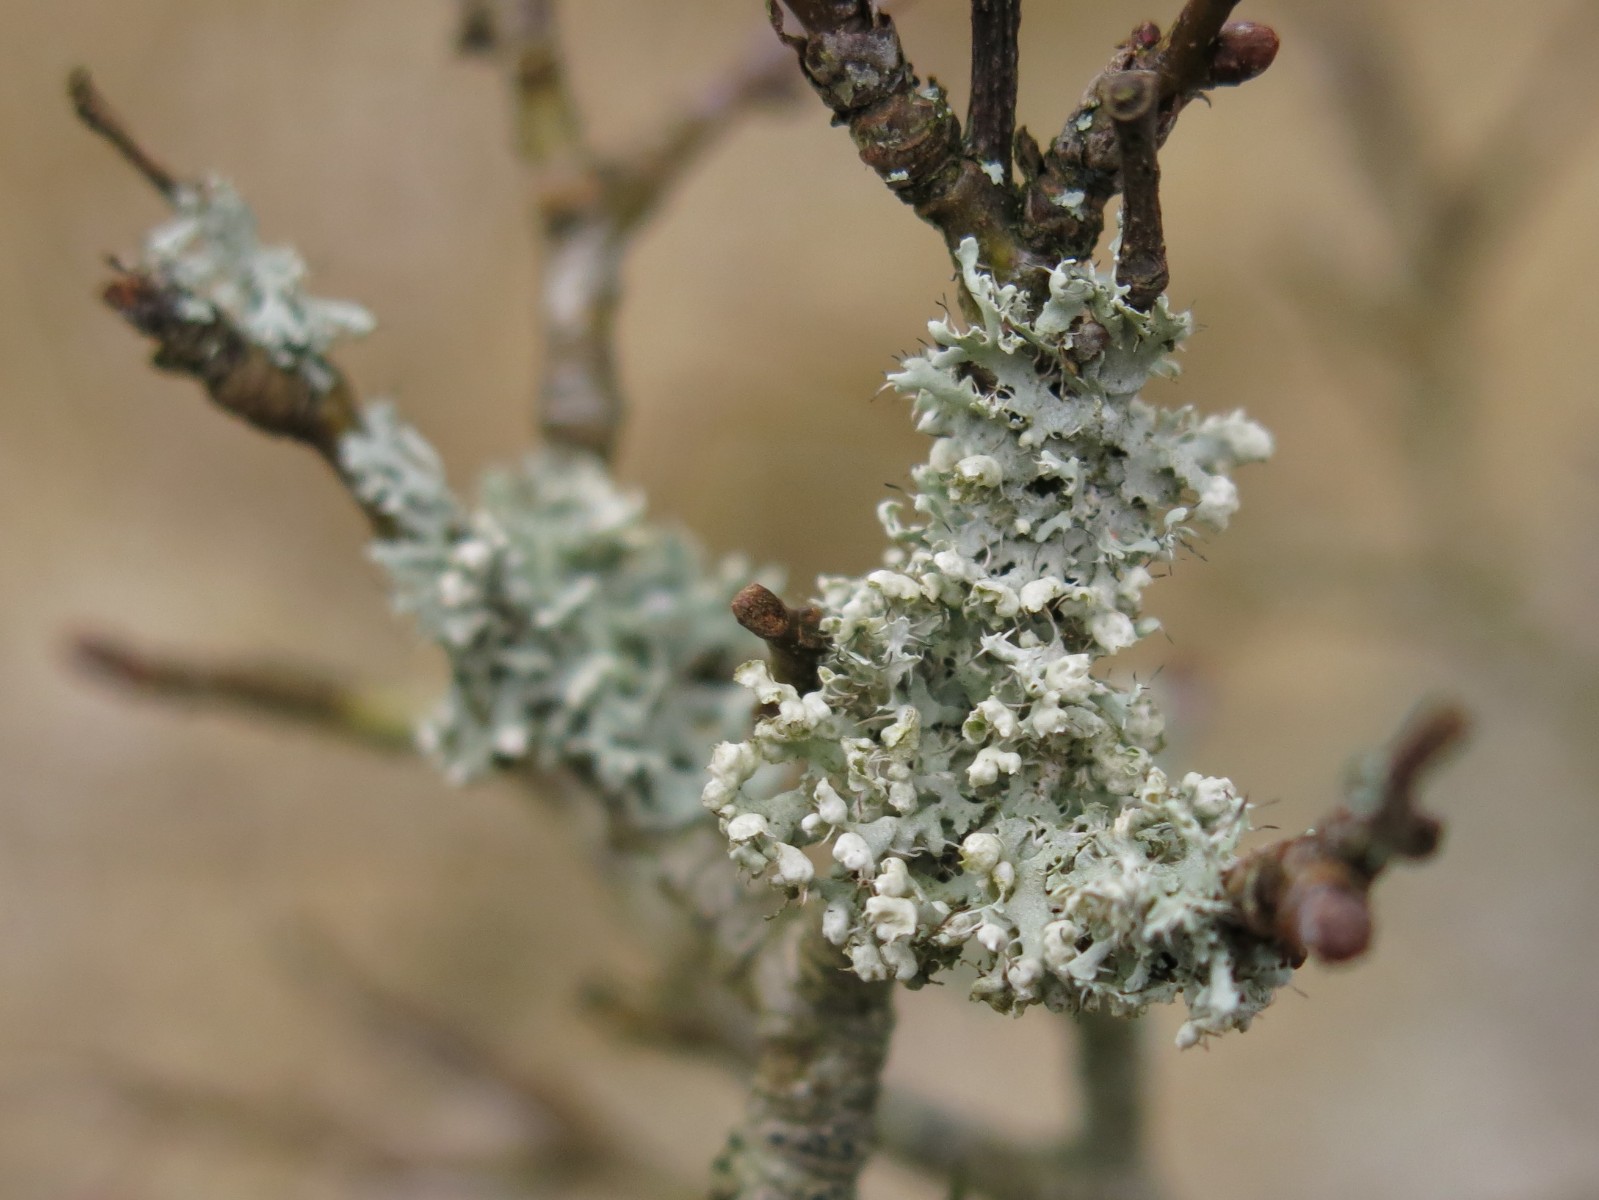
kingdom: Fungi
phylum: Ascomycota
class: Lecanoromycetes
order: Caliciales
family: Physciaceae
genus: Physcia
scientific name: Physcia adscendens
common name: hætte-rosetlav
